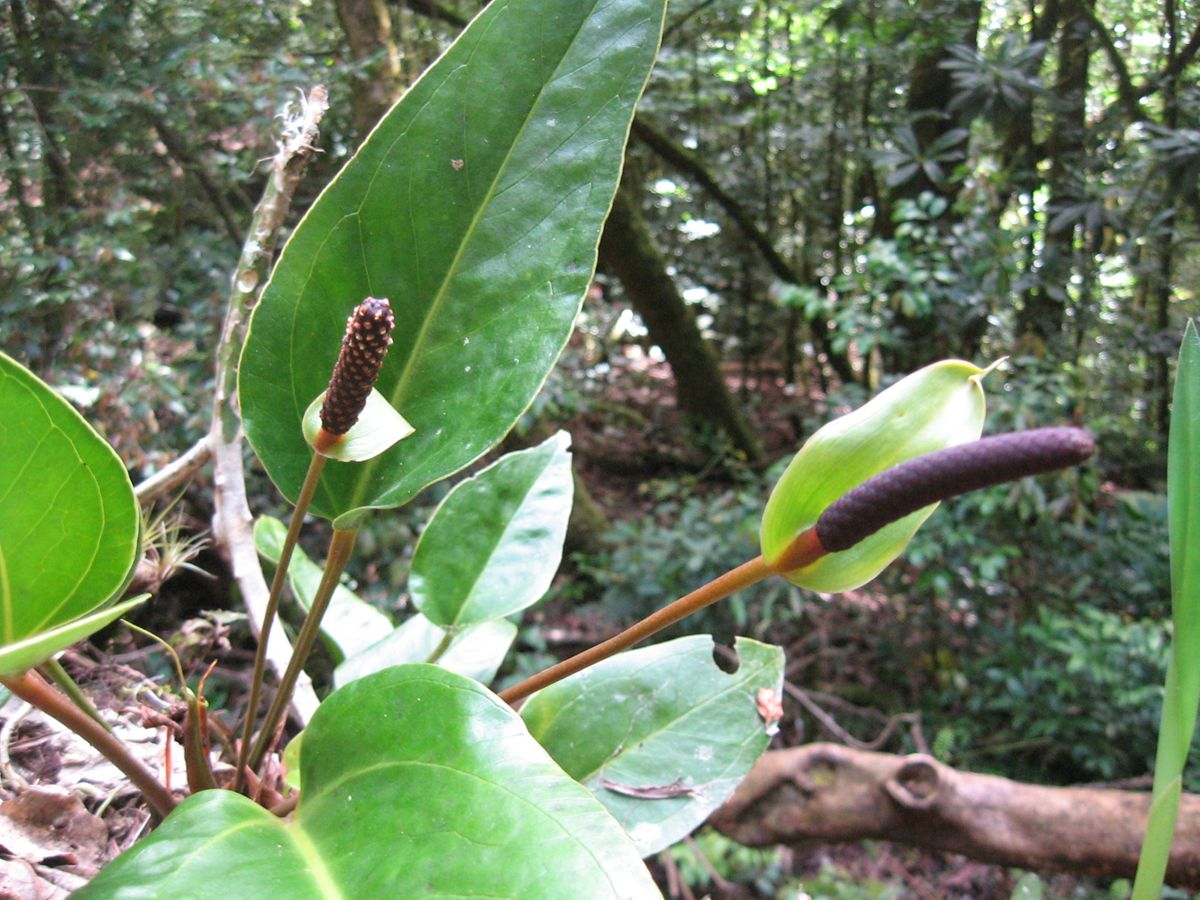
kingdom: Plantae
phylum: Tracheophyta
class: Liliopsida
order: Alismatales
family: Araceae
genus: Anthurium
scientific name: Anthurium subcordatum
